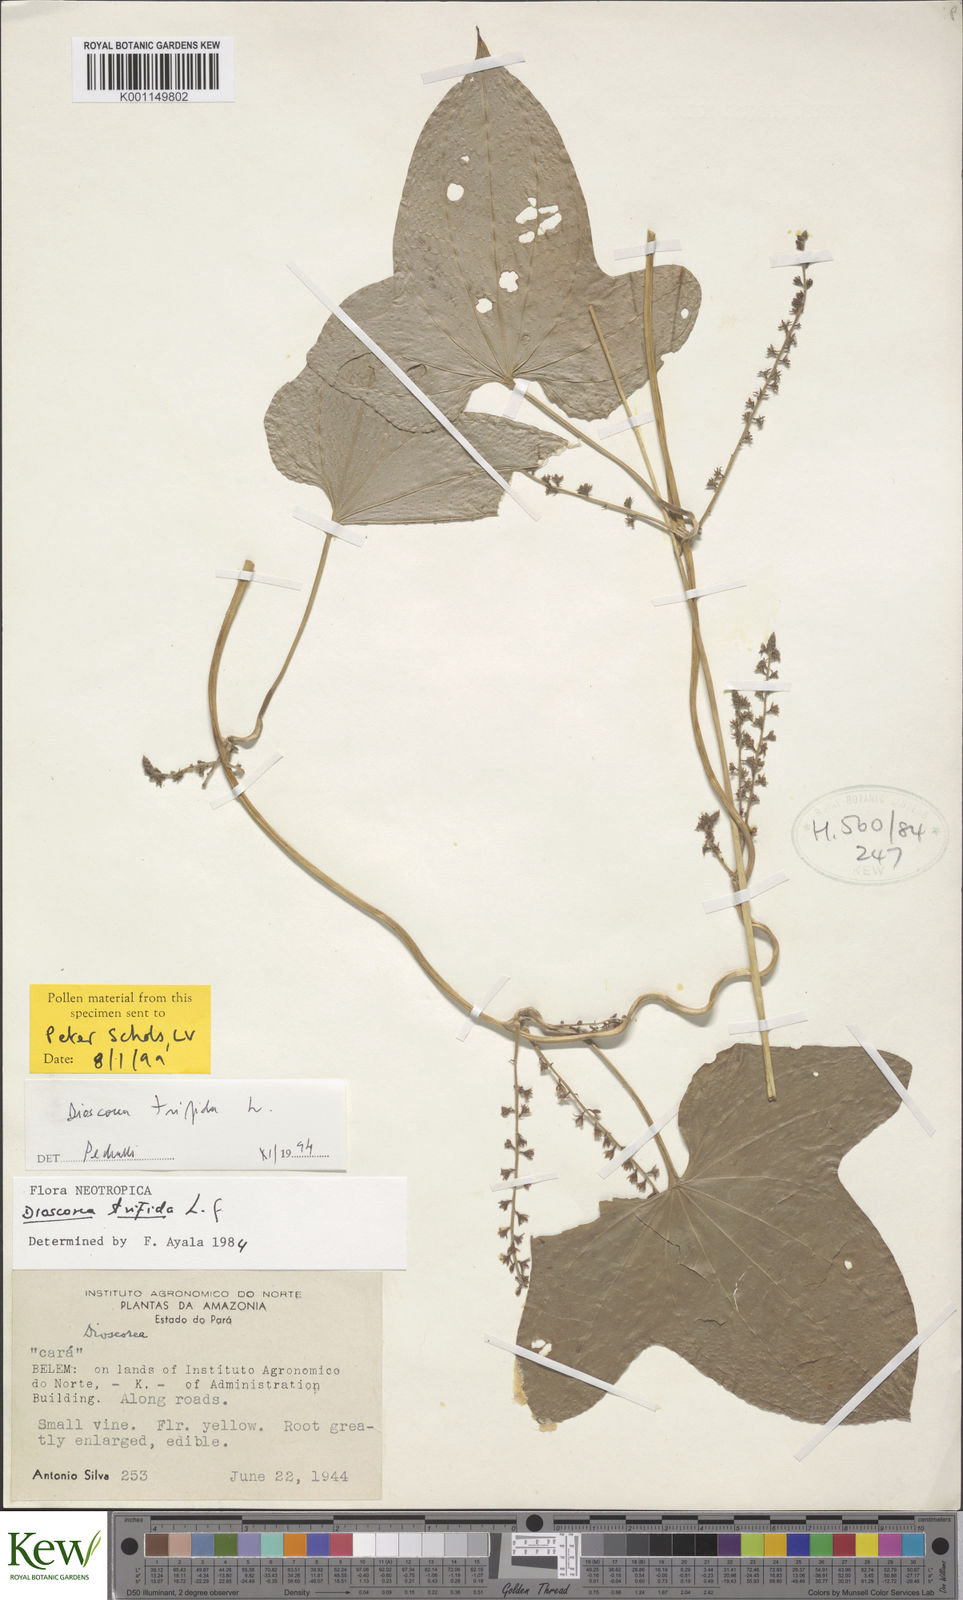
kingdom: Plantae
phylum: Tracheophyta
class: Liliopsida
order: Dioscoreales
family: Dioscoreaceae
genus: Dioscorea
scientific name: Dioscorea trifida
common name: Cush-cush
